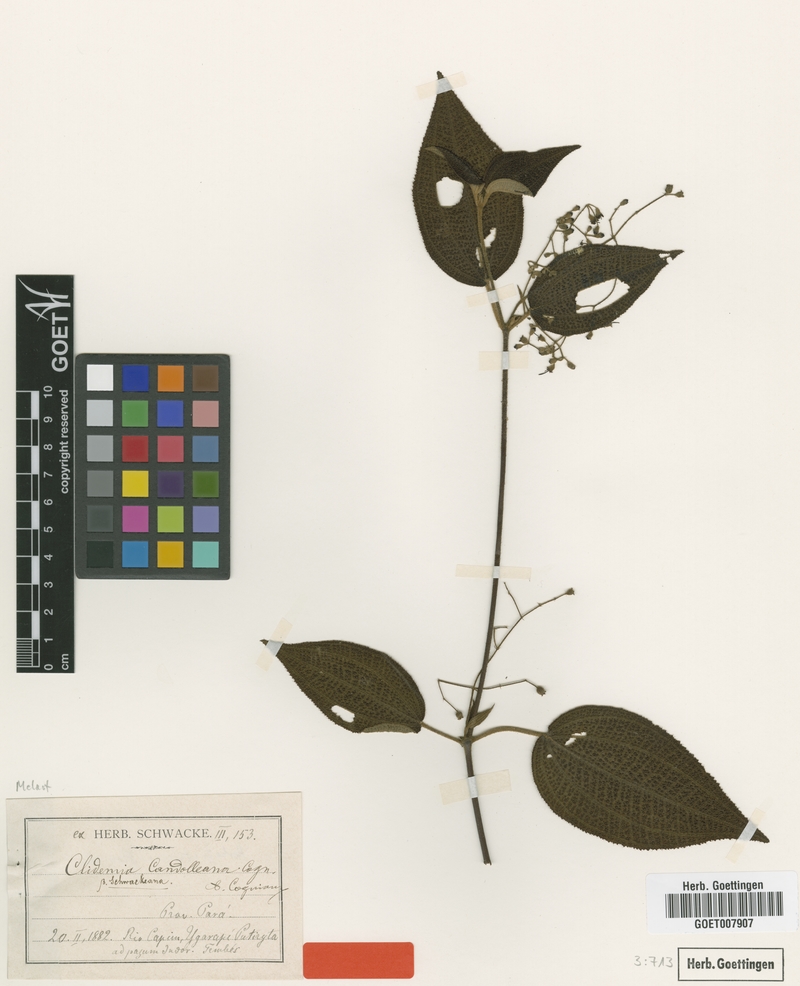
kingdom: Plantae
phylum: Tracheophyta
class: Magnoliopsida
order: Myrtales
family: Melastomataceae
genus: Miconia
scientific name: Miconia bullosa
